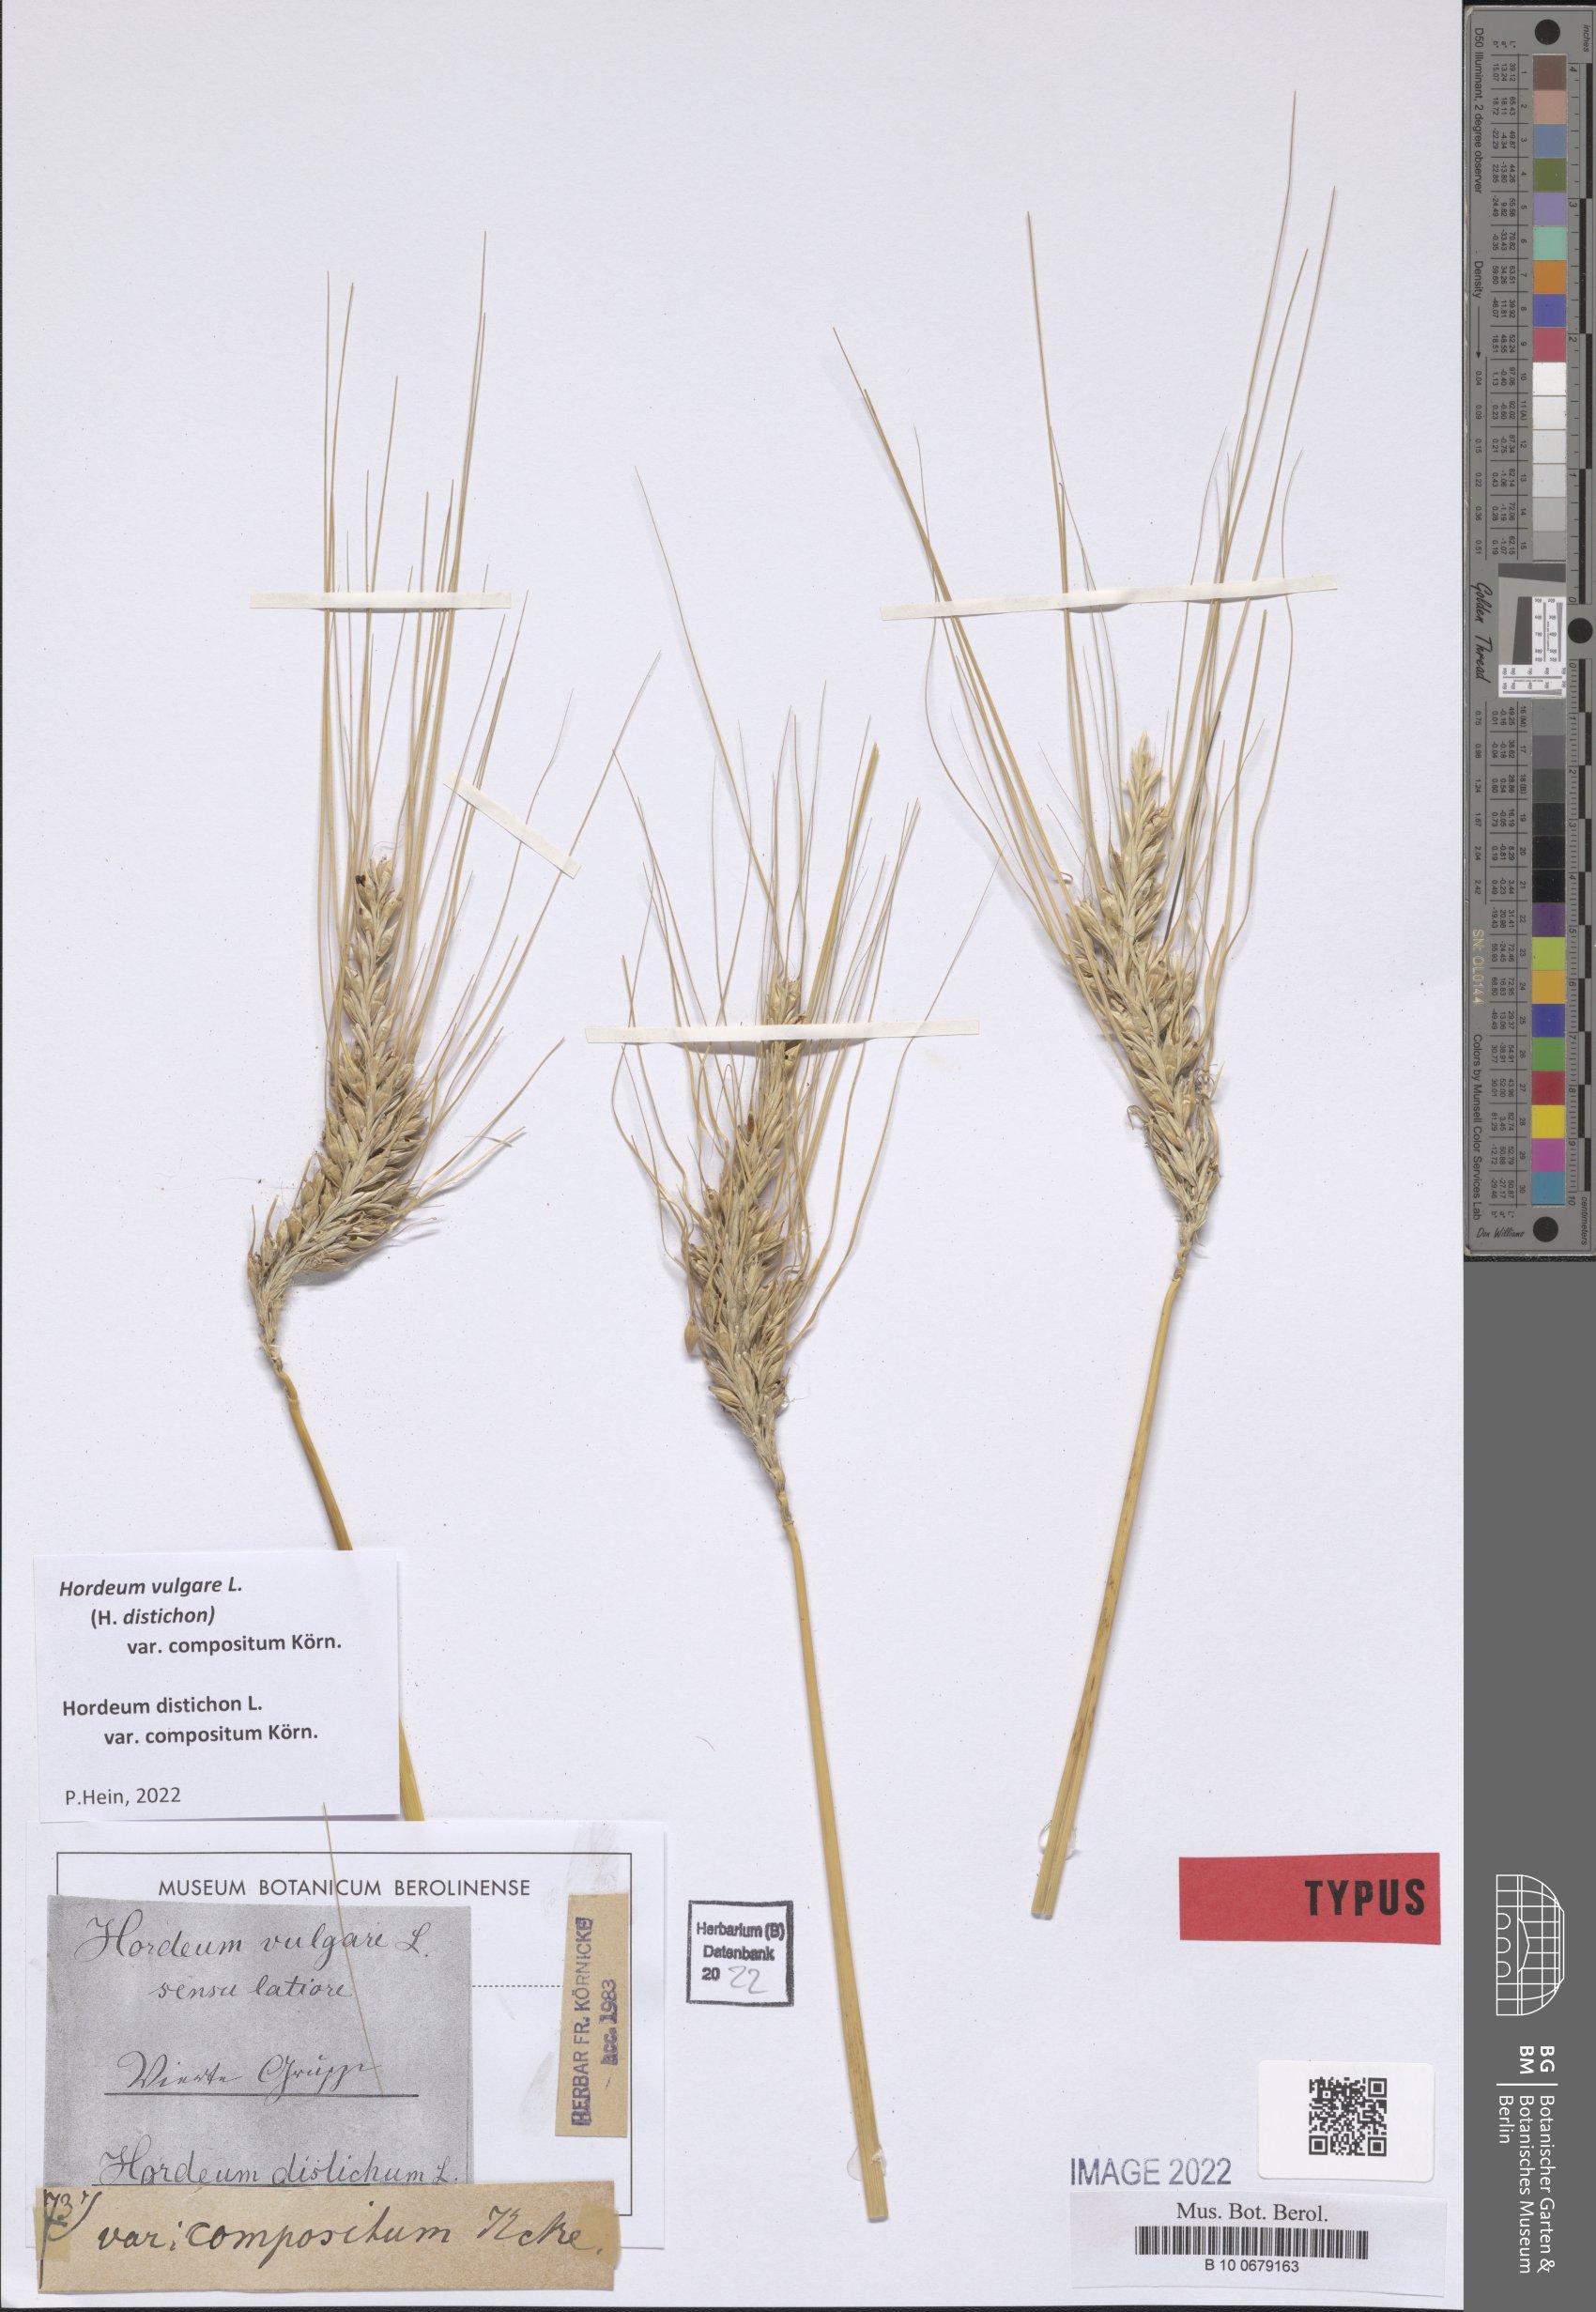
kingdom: Plantae
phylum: Tracheophyta
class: Liliopsida
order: Poales
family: Poaceae
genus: Hordeum
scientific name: Hordeum vulgare
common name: Common barley
